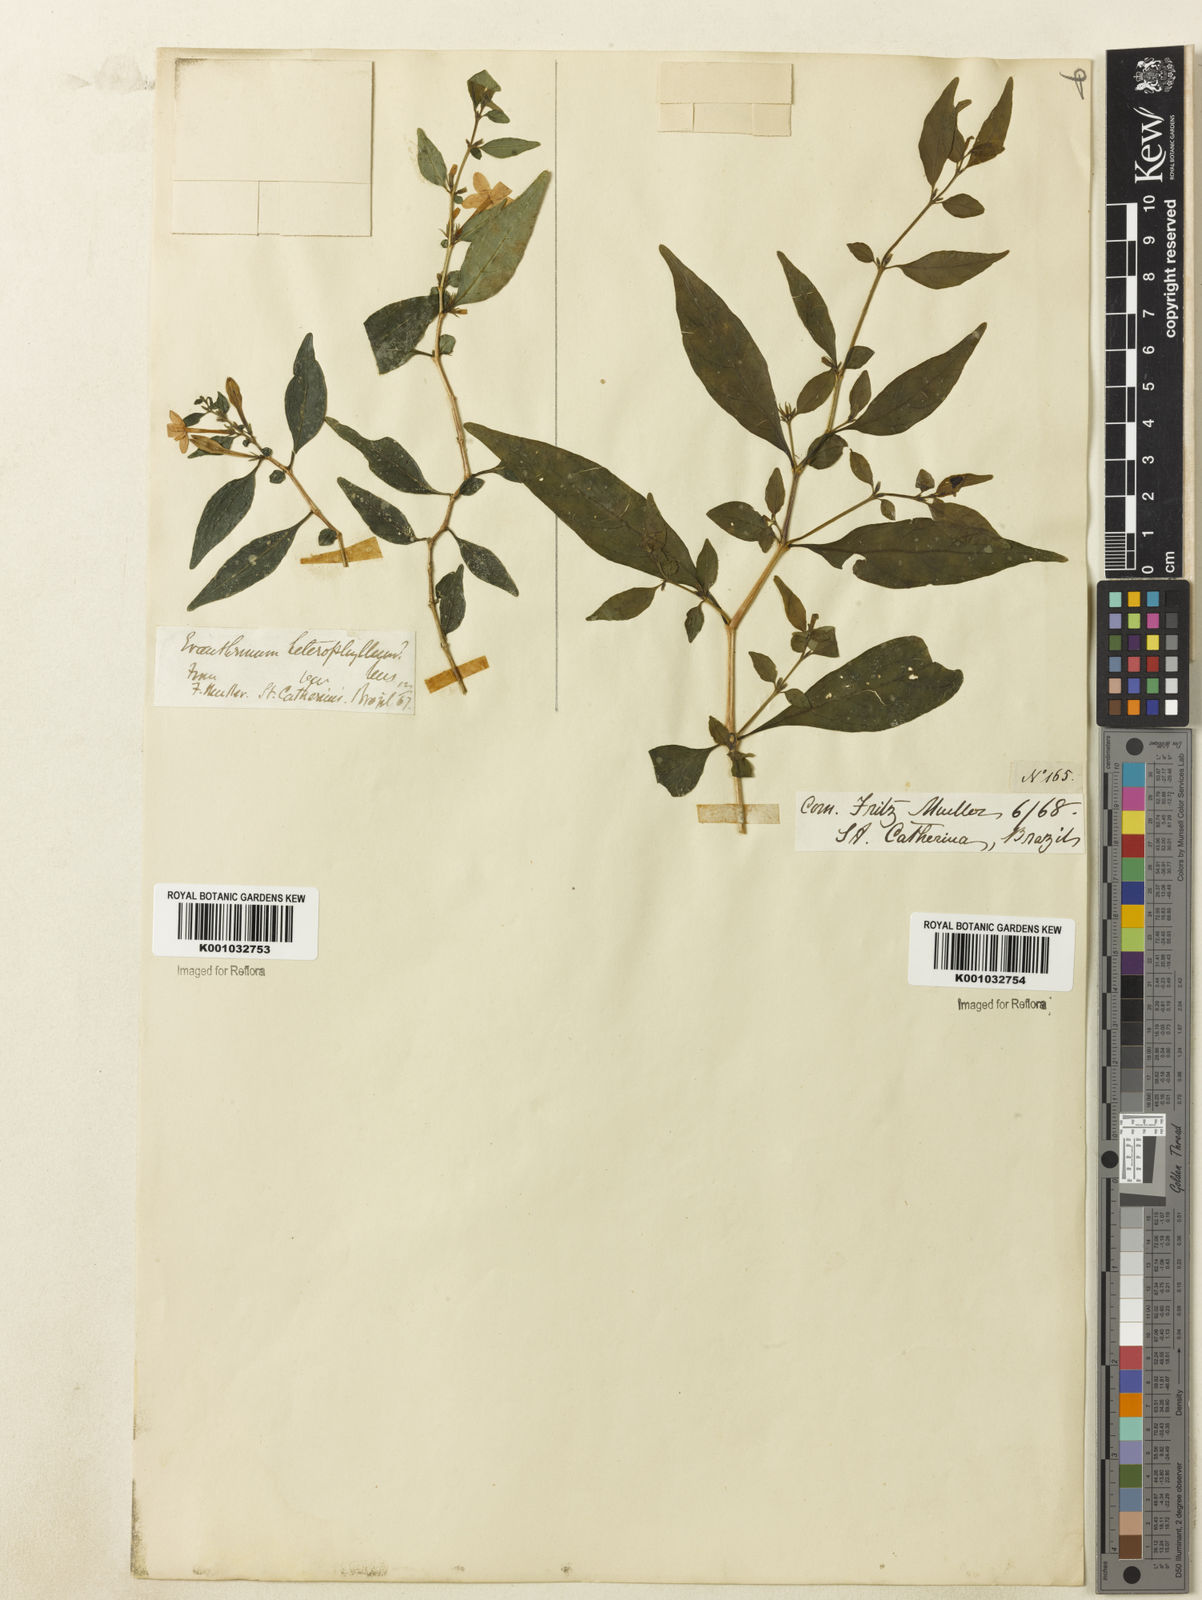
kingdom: Plantae
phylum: Tracheophyta
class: Magnoliopsida
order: Lamiales
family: Acanthaceae
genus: Pseuderanthemum
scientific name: Pseuderanthemum heterophyllum
